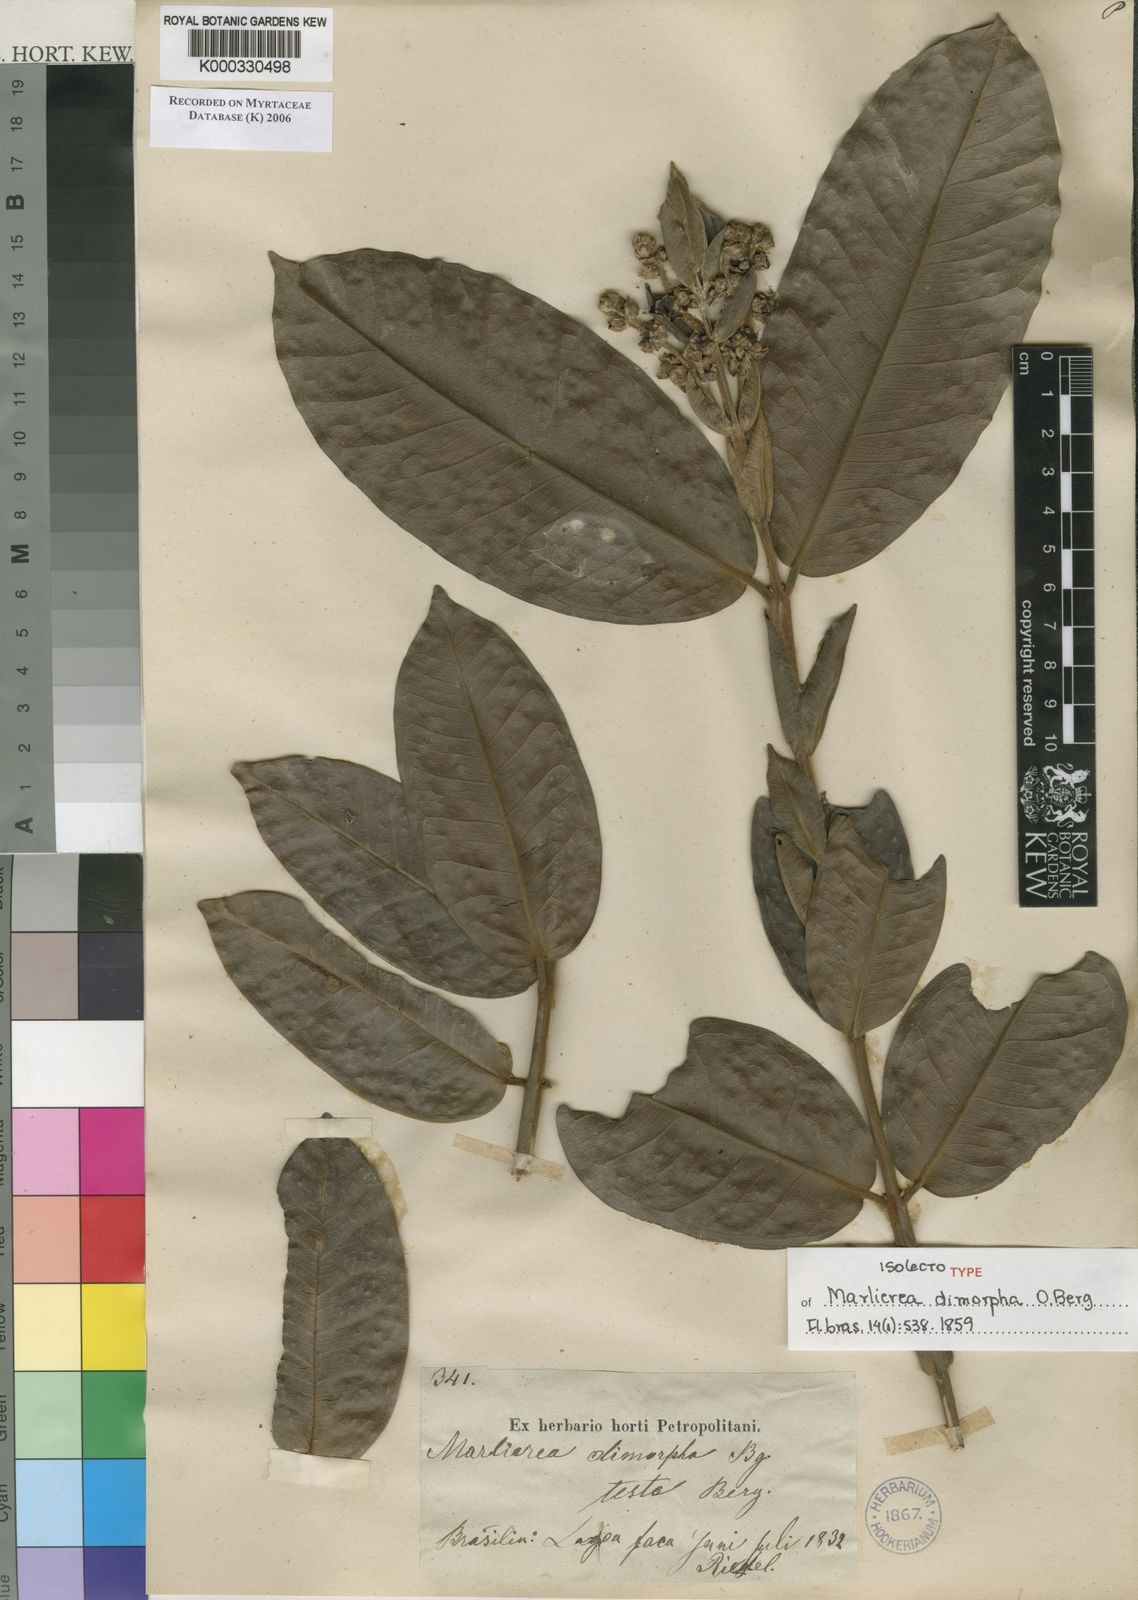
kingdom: Plantae
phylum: Tracheophyta
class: Magnoliopsida
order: Myrtales
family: Myrtaceae
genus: Myrcia
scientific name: Myrcia neodimorpha
